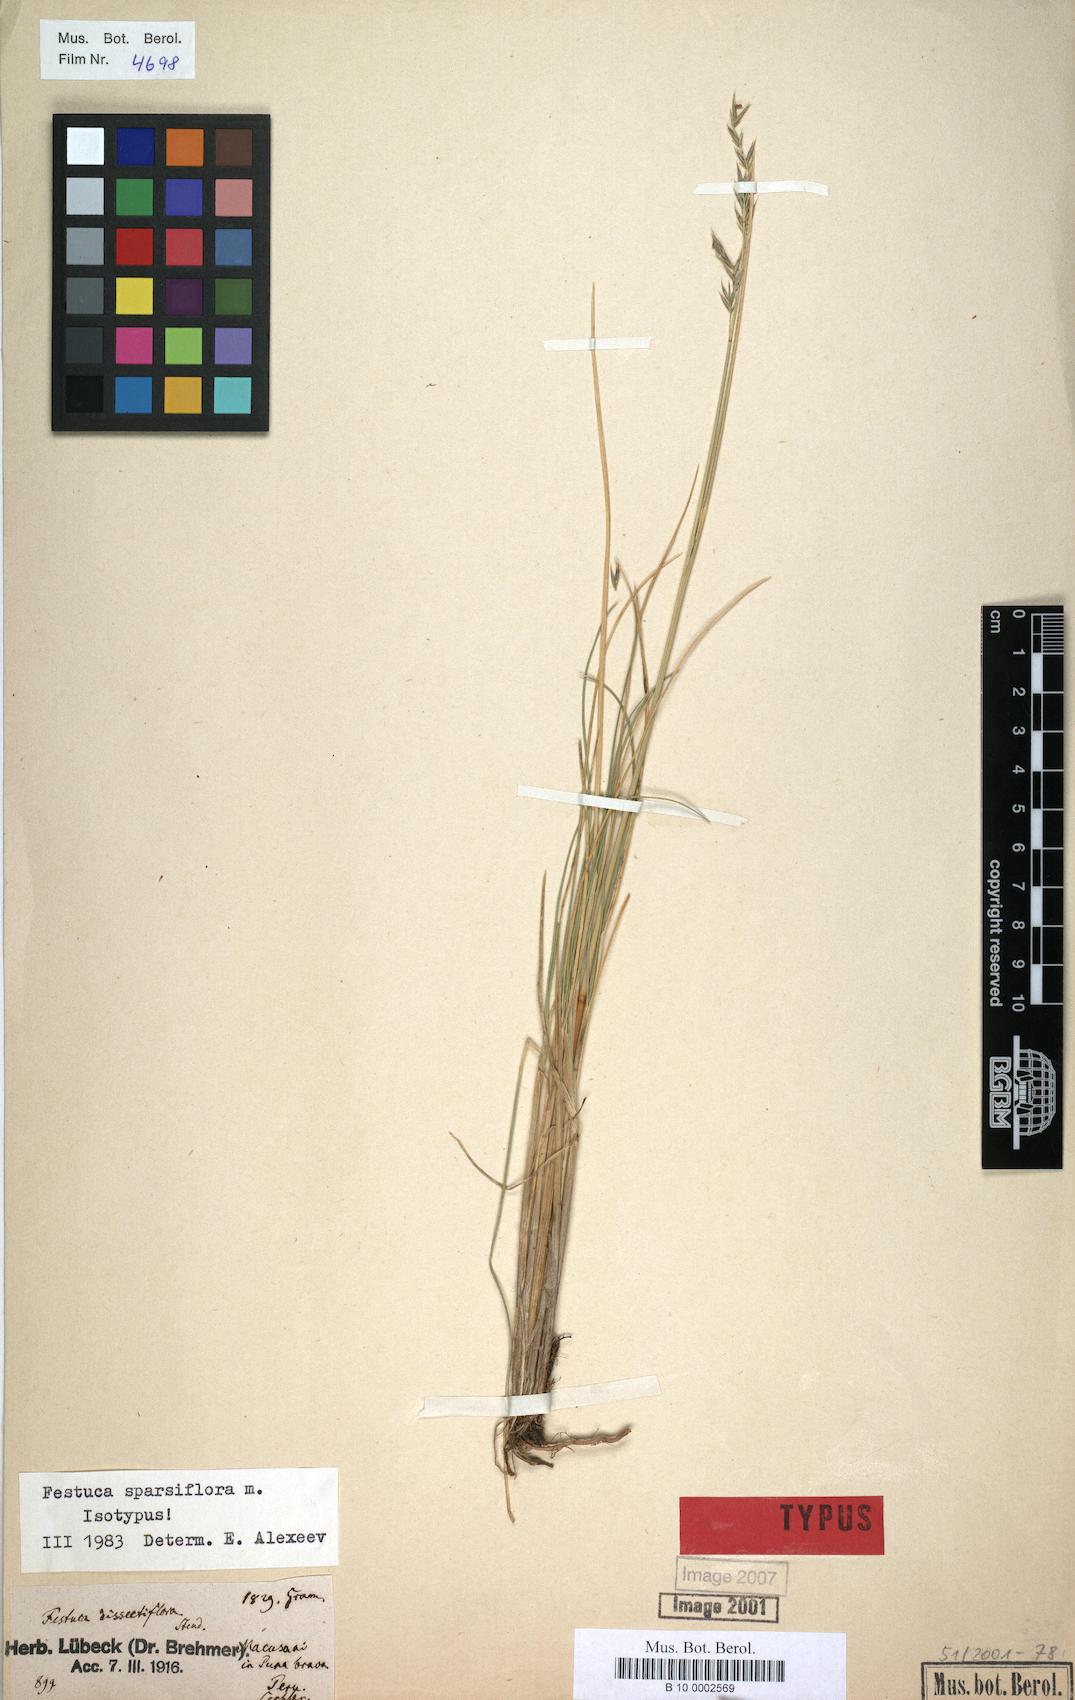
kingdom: Plantae
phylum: Tracheophyta
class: Liliopsida
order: Poales
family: Poaceae
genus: Festuca
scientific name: Festuca
